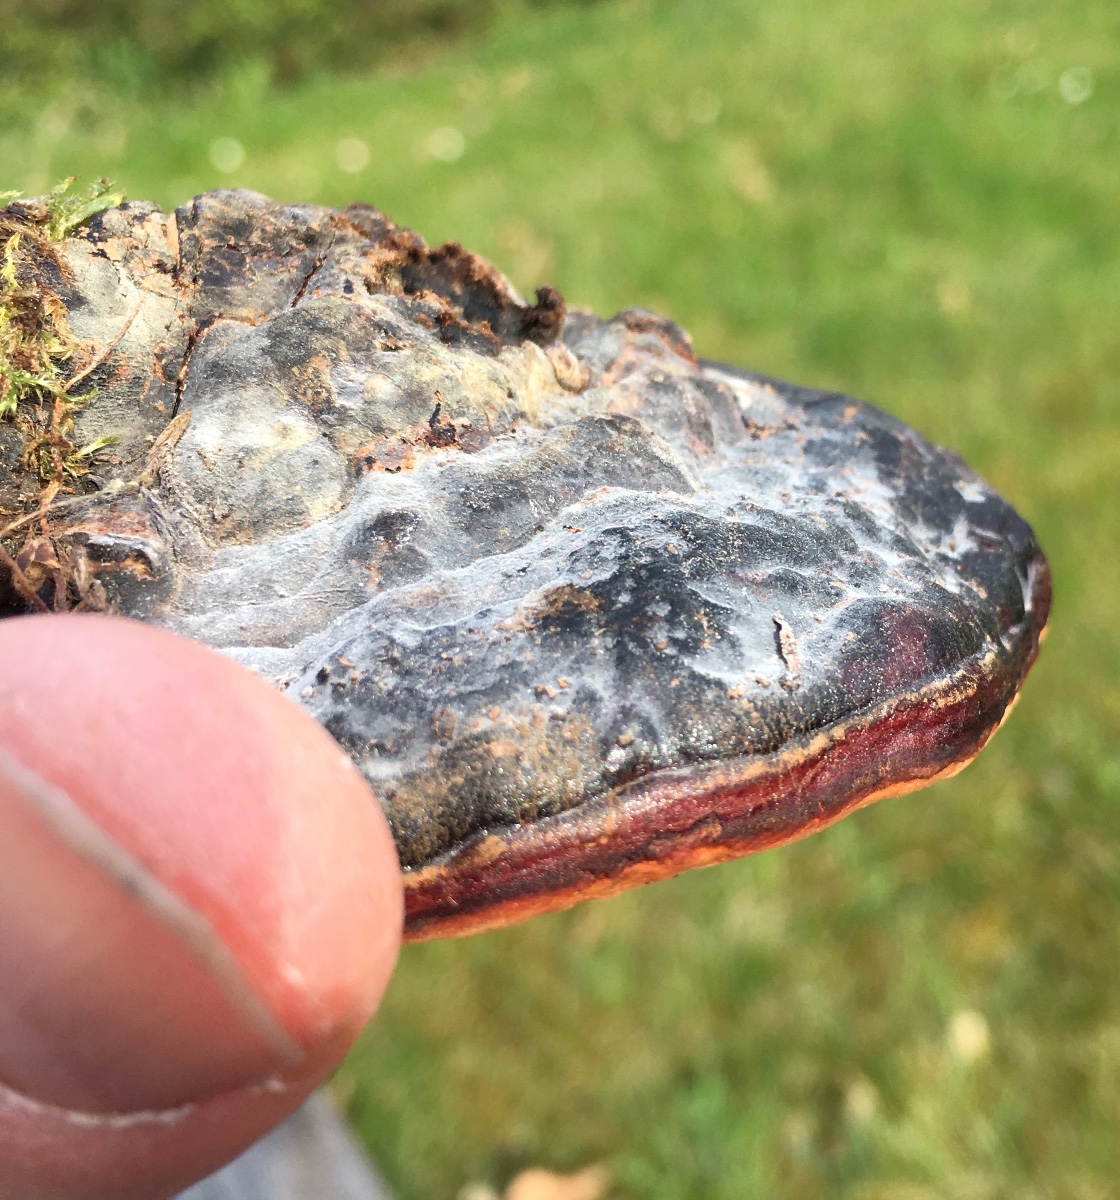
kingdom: Fungi
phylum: Basidiomycota
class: Agaricomycetes
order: Polyporales
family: Fomitopsidaceae
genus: Fomitopsis
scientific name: Fomitopsis pinicola
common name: randbæltet hovporesvamp
